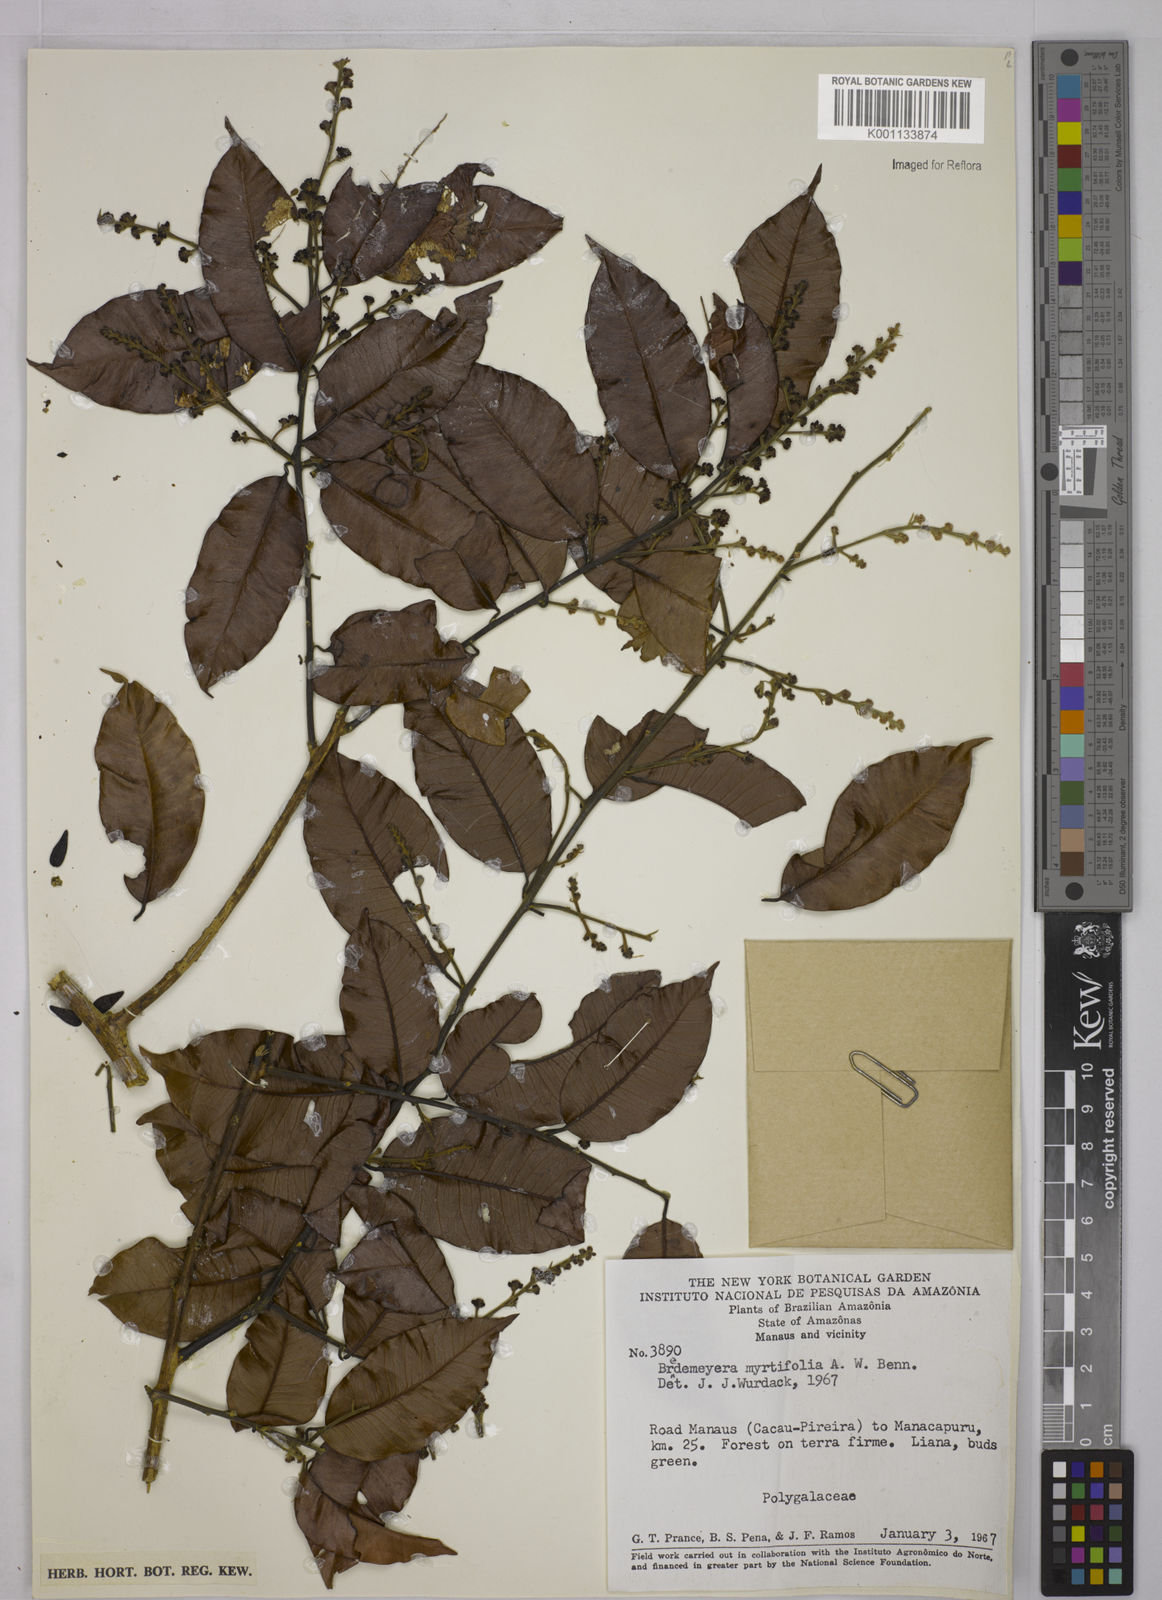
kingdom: Plantae
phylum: Tracheophyta
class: Magnoliopsida
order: Fabales
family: Polygalaceae
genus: Bredemeyera
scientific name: Bredemeyera
